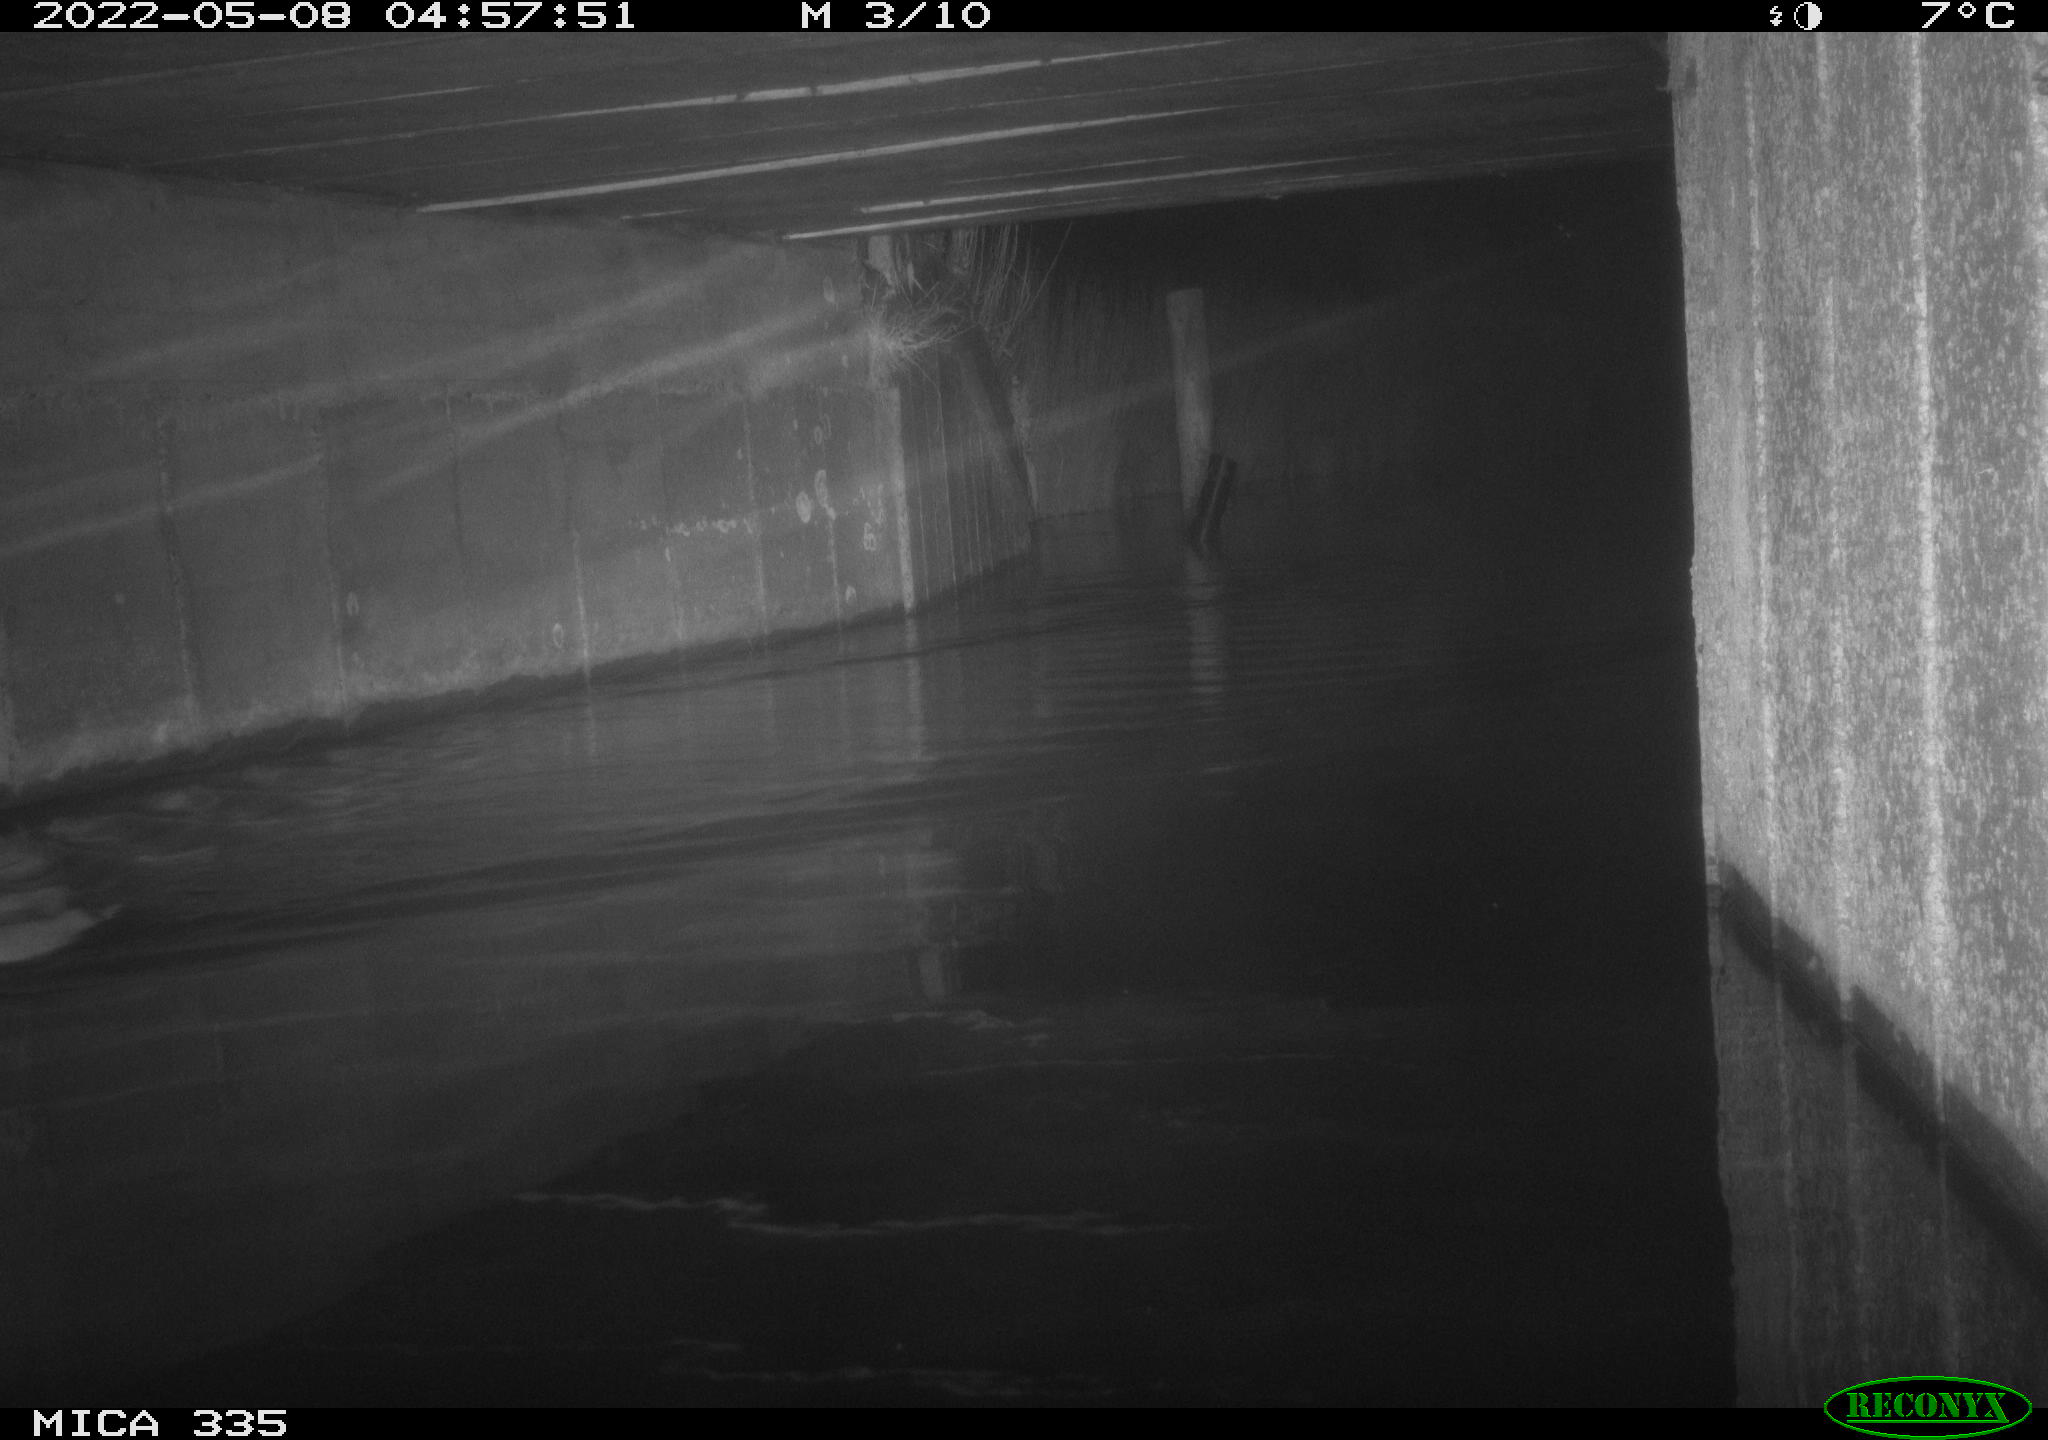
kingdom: Animalia
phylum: Chordata
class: Aves
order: Anseriformes
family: Anatidae
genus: Anas
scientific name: Anas platyrhynchos
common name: Mallard
